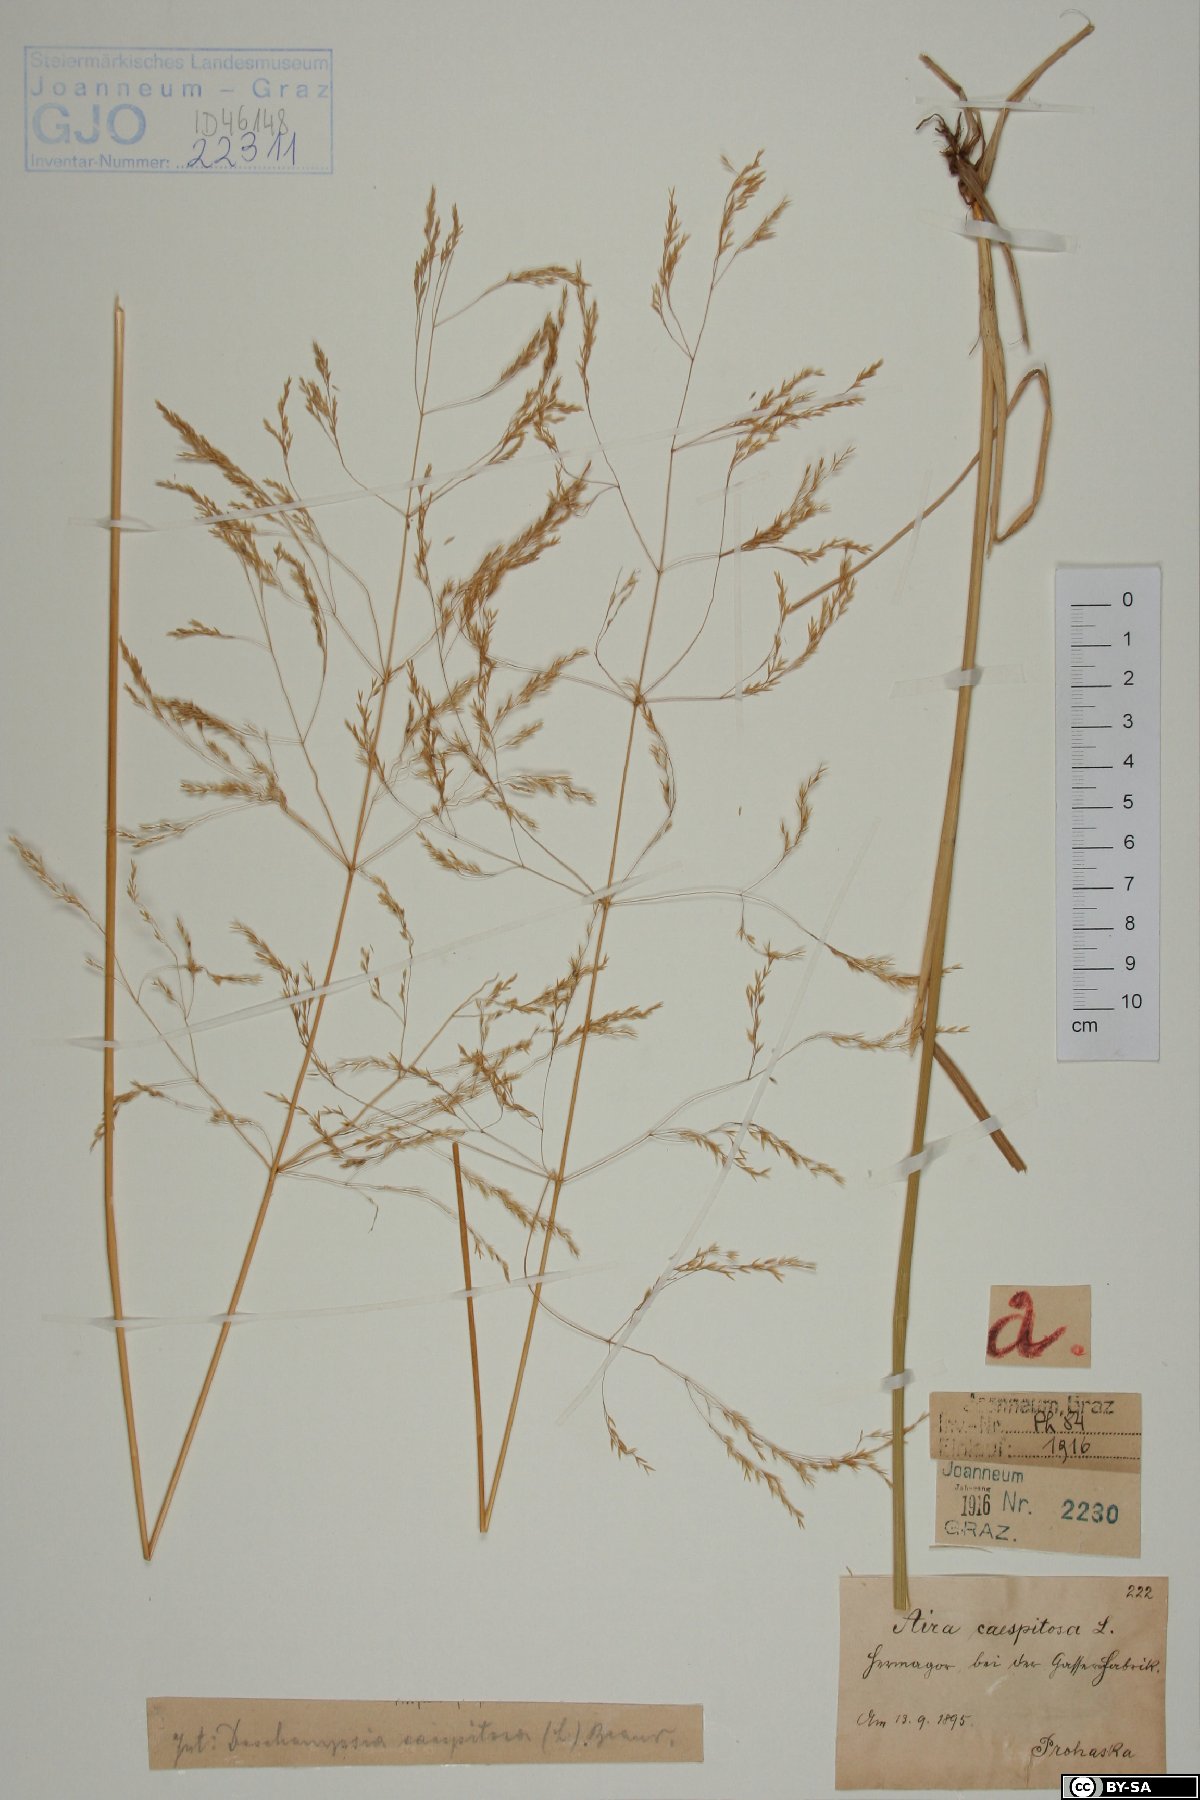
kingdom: Plantae
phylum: Tracheophyta
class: Liliopsida
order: Poales
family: Poaceae
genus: Deschampsia
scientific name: Deschampsia cespitosa
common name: Tufted hair-grass
